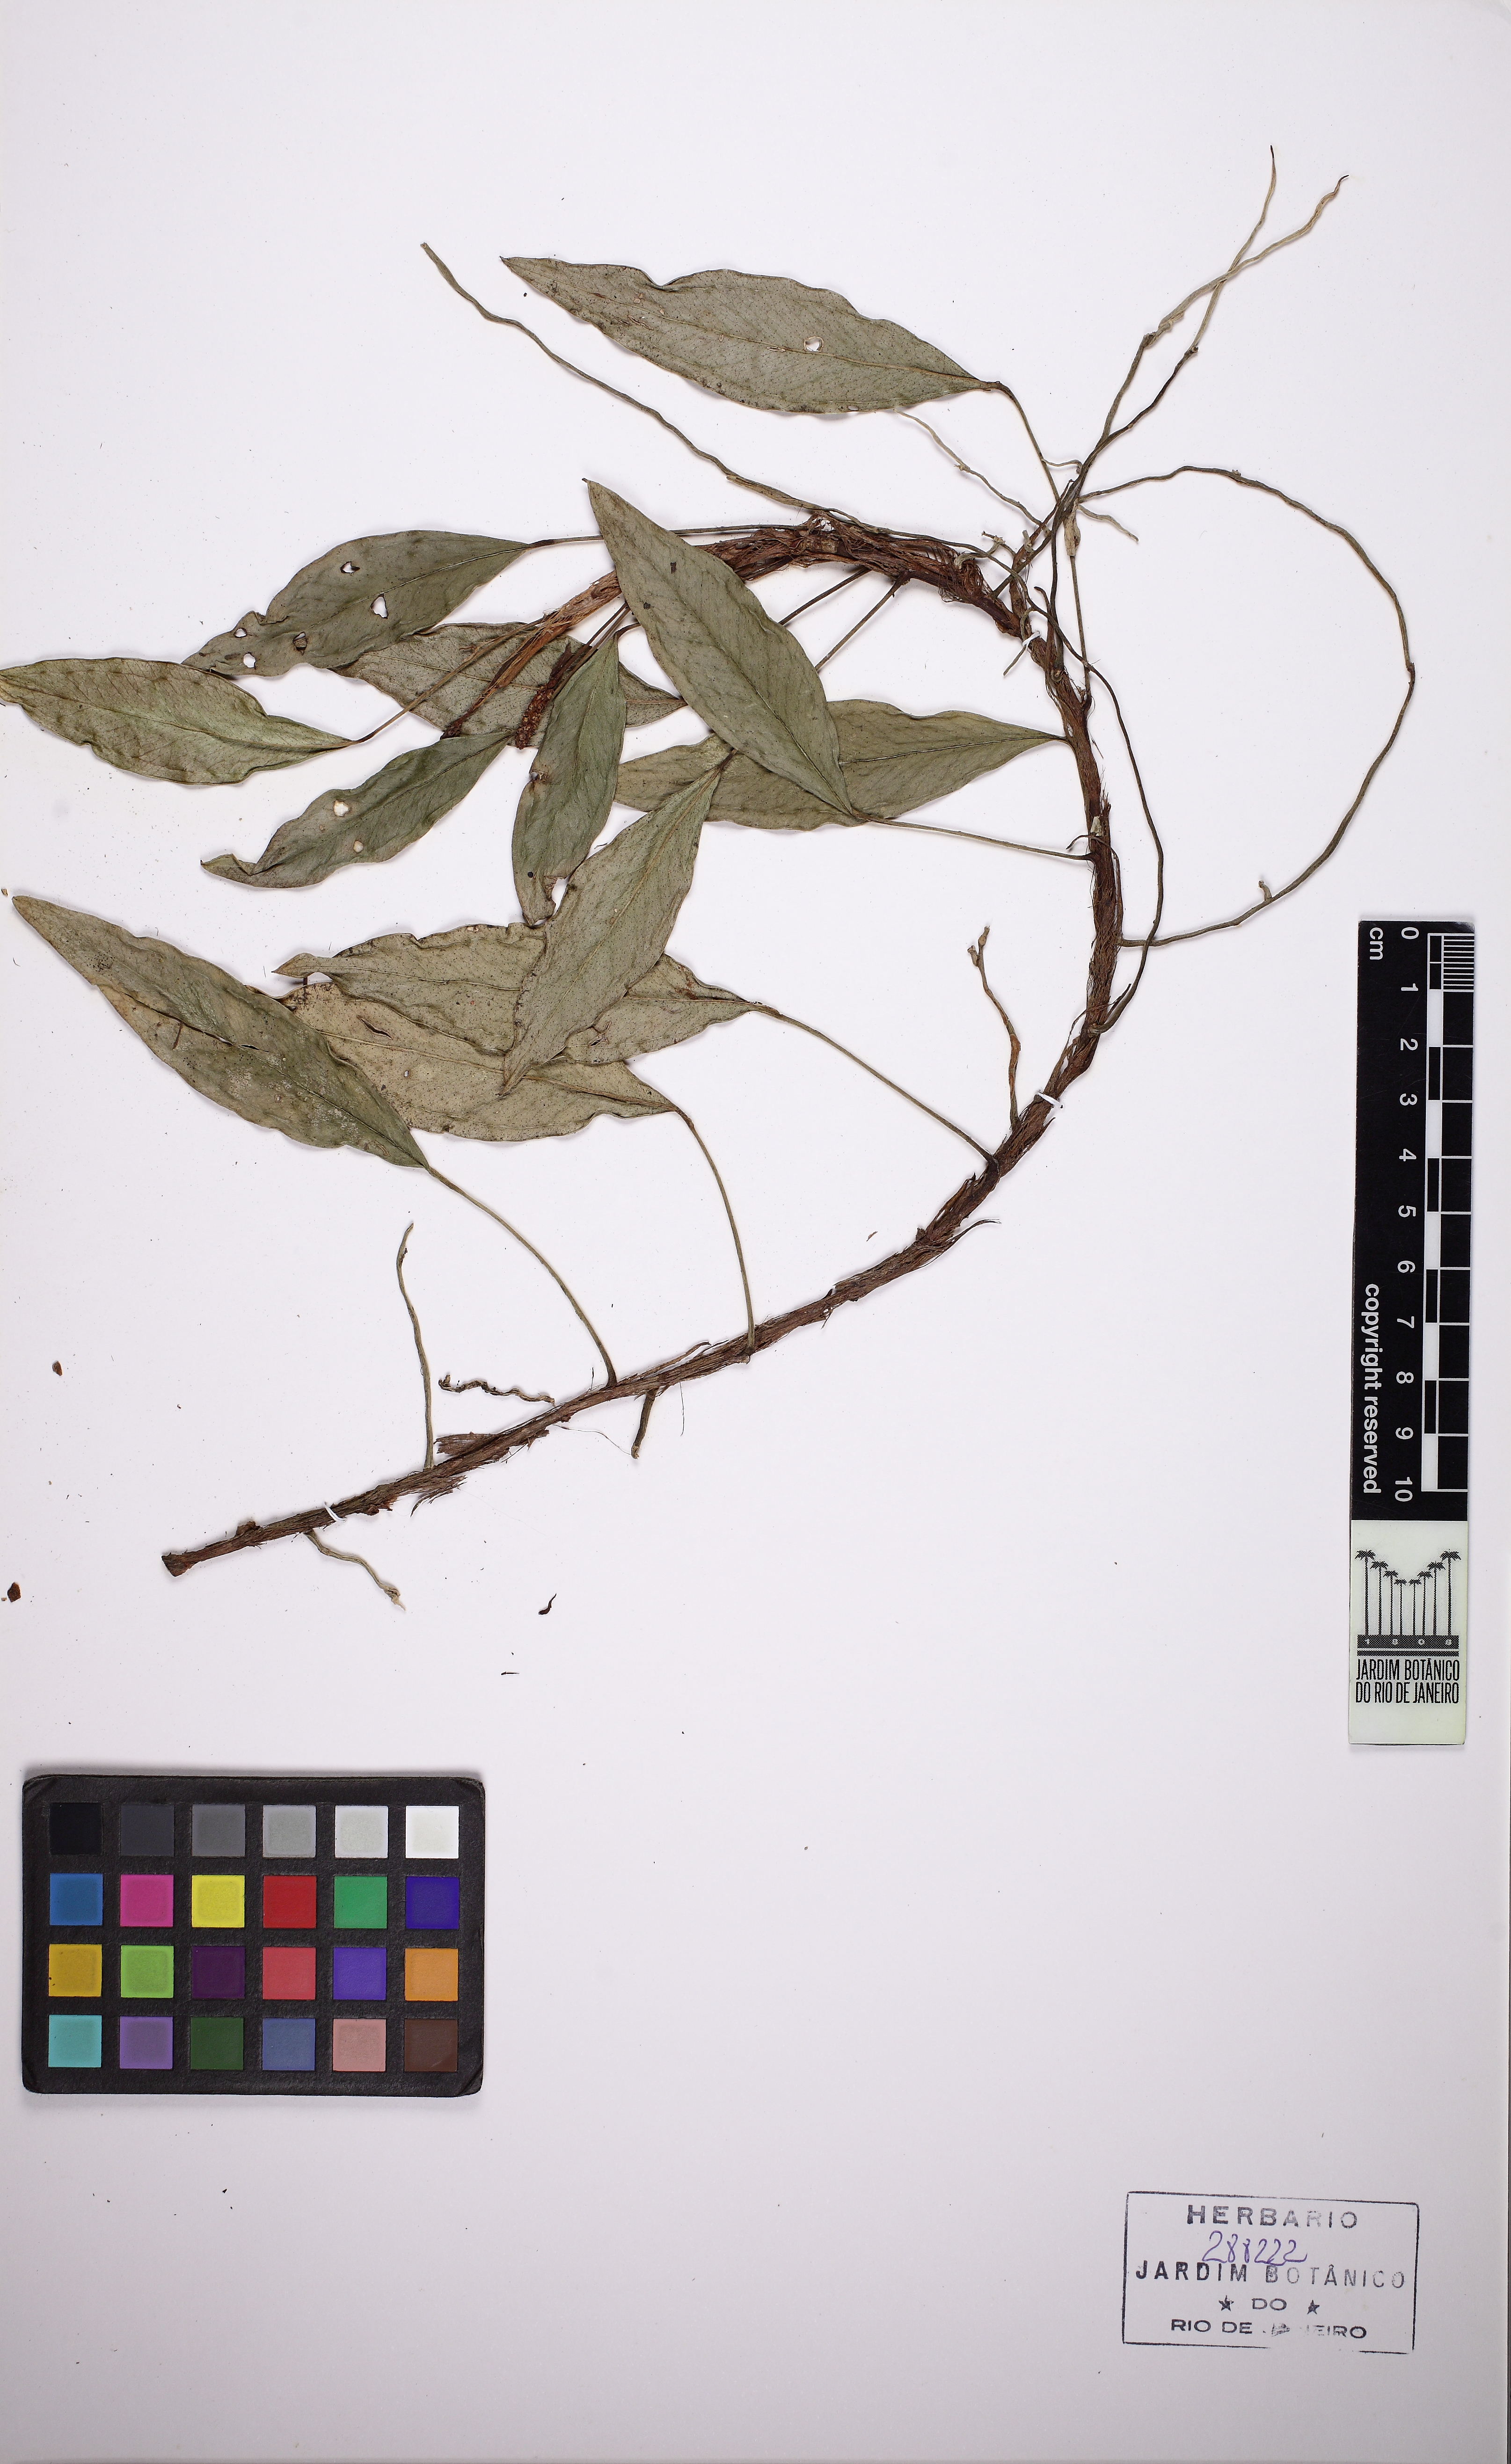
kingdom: Plantae
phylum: Tracheophyta
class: Liliopsida
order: Alismatales
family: Araceae
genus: Anthurium
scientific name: Anthurium scandens
